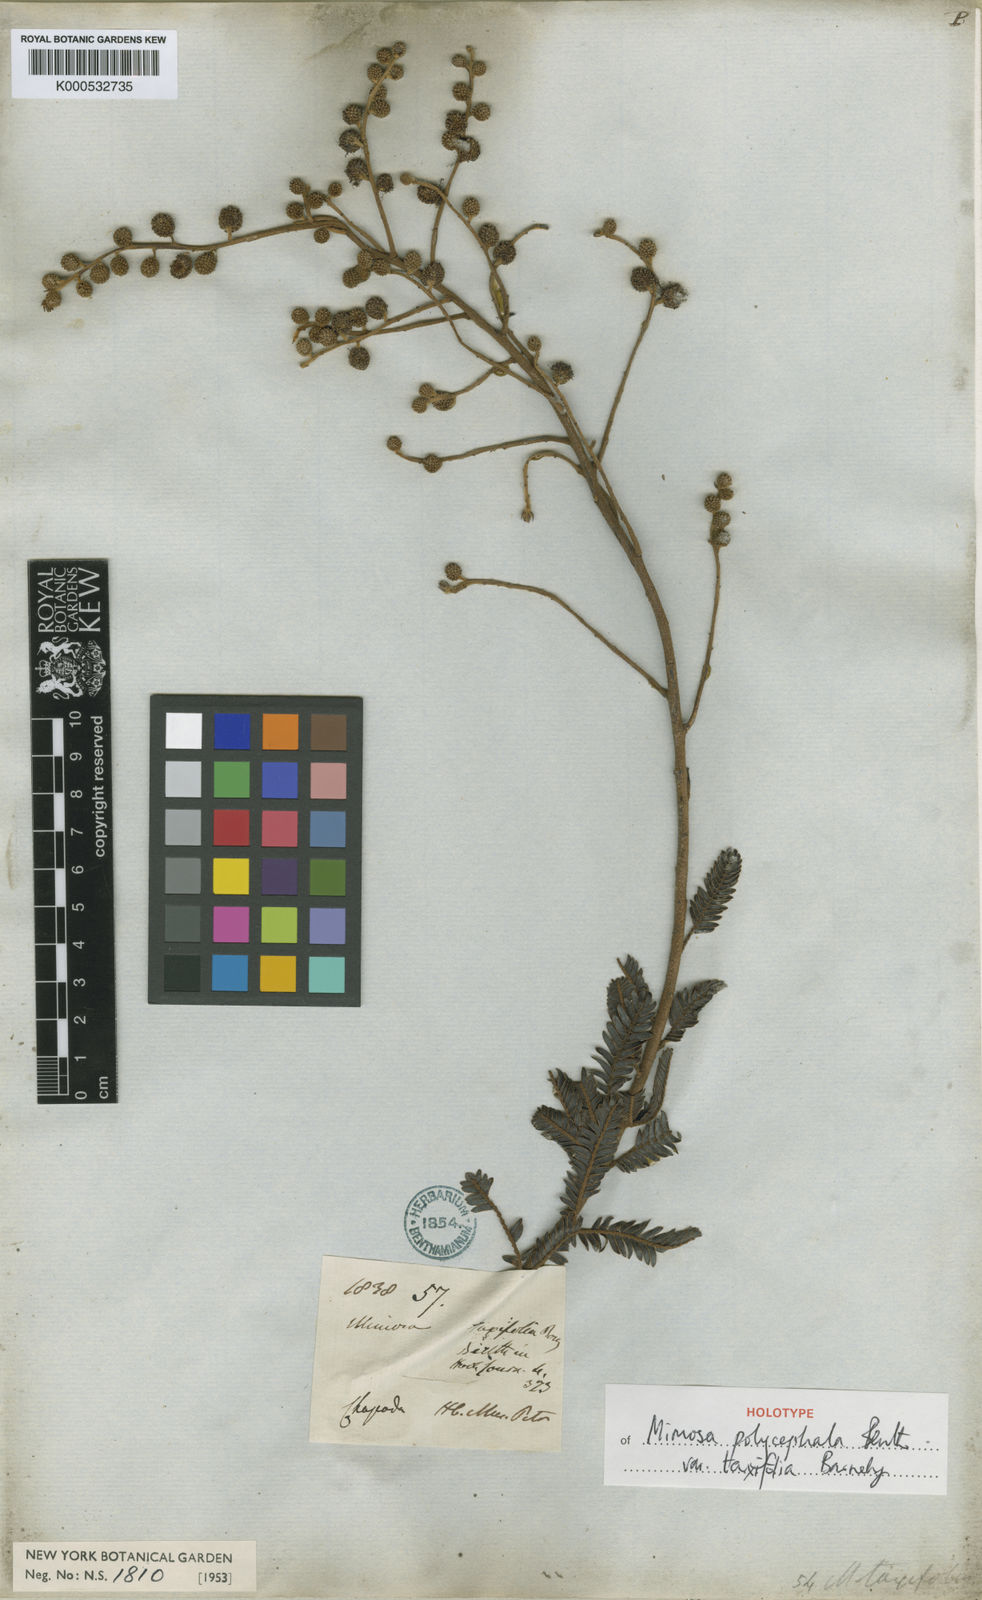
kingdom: Plantae
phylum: Tracheophyta
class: Magnoliopsida
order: Fabales
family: Fabaceae
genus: Mimosa
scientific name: Mimosa polycephala
